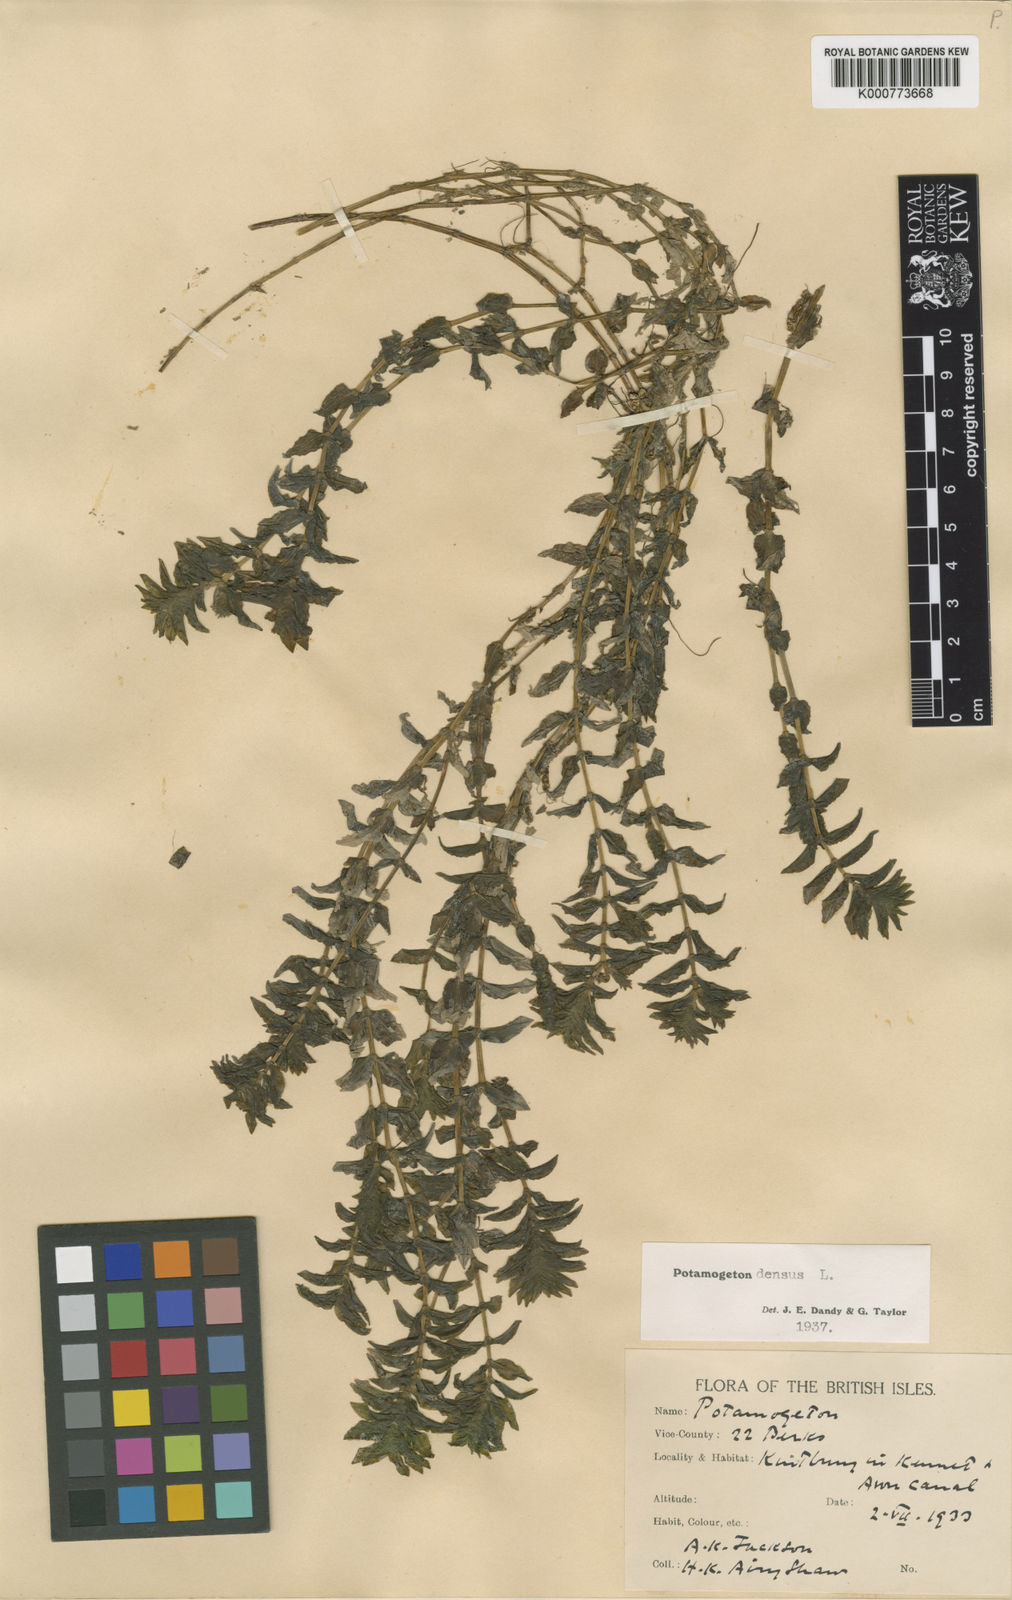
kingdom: Plantae
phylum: Tracheophyta
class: Liliopsida
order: Alismatales
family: Potamogetonaceae
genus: Groenlandia
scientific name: Groenlandia densa
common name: Opposite-leaved pondweed
